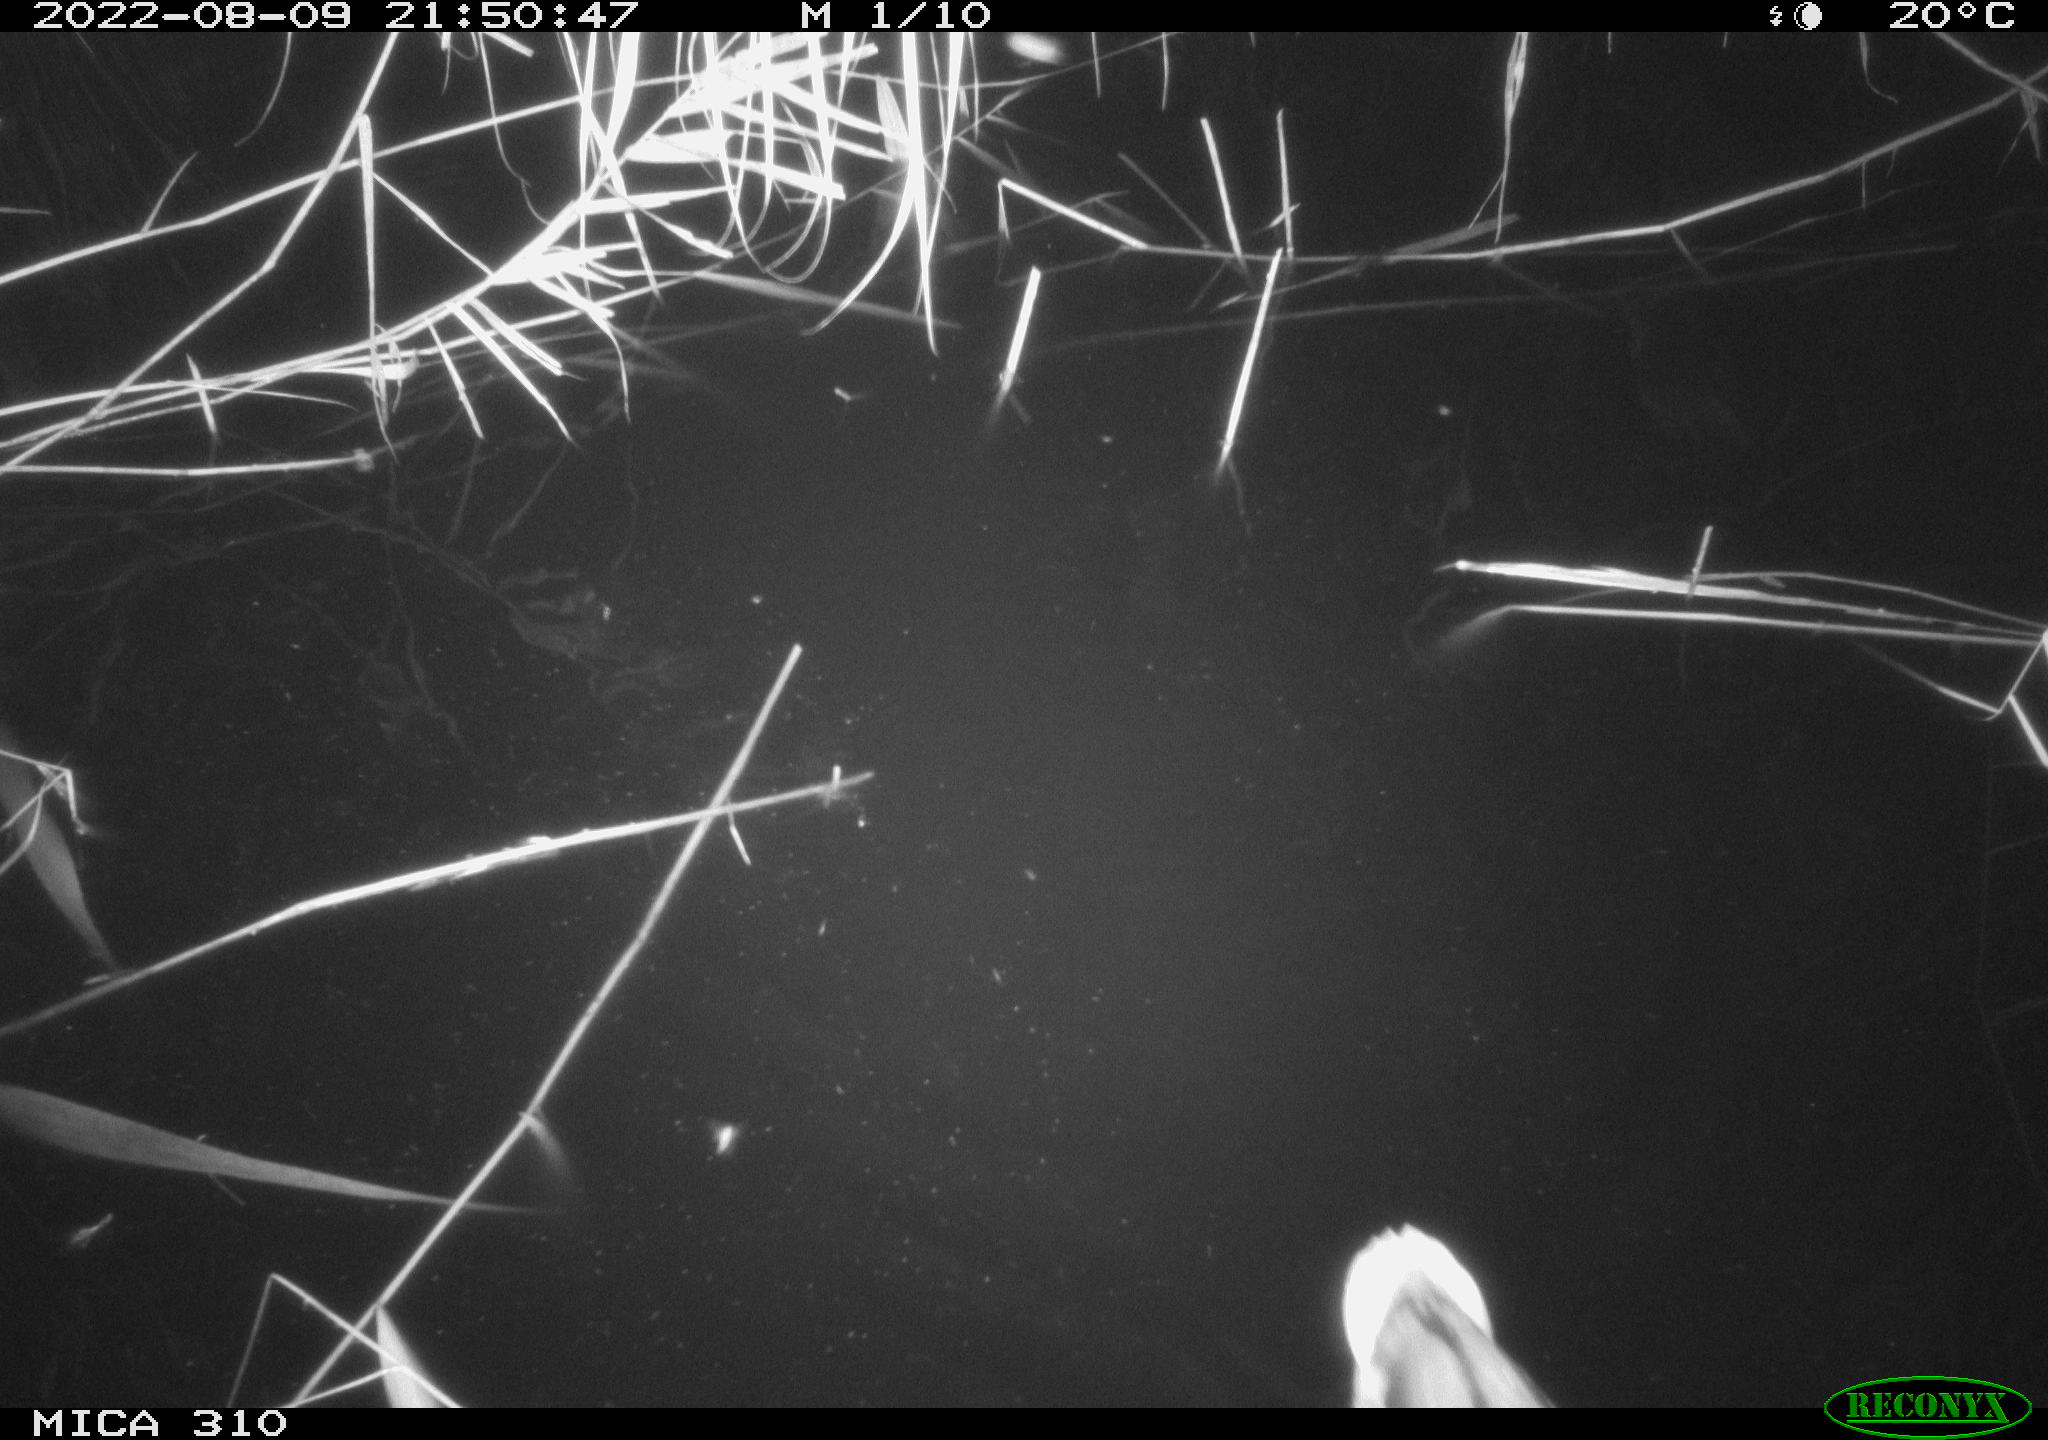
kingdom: Animalia
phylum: Chordata
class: Aves
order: Anseriformes
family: Anatidae
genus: Anas
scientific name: Anas platyrhynchos
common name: Mallard
